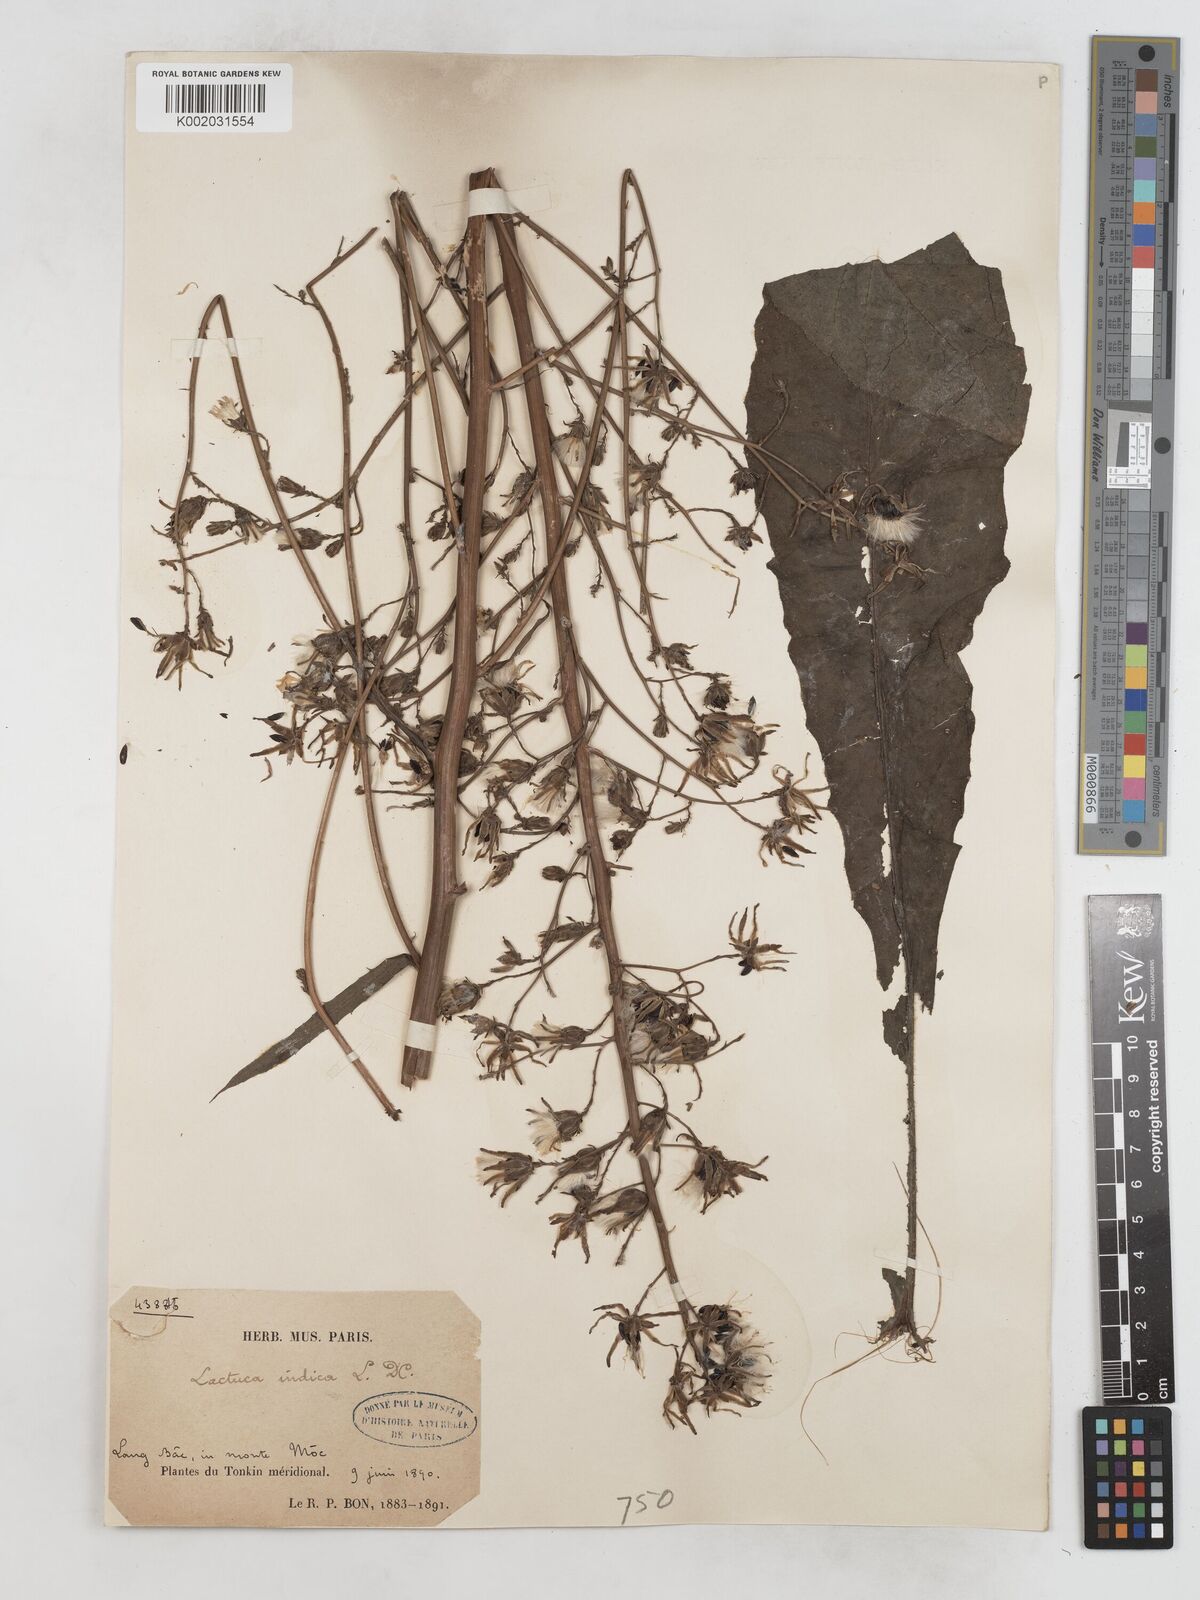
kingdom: Plantae
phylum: Tracheophyta
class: Magnoliopsida
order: Asterales
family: Asteraceae
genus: Lactuca
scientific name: Lactuca indica
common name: Wild lettuce
